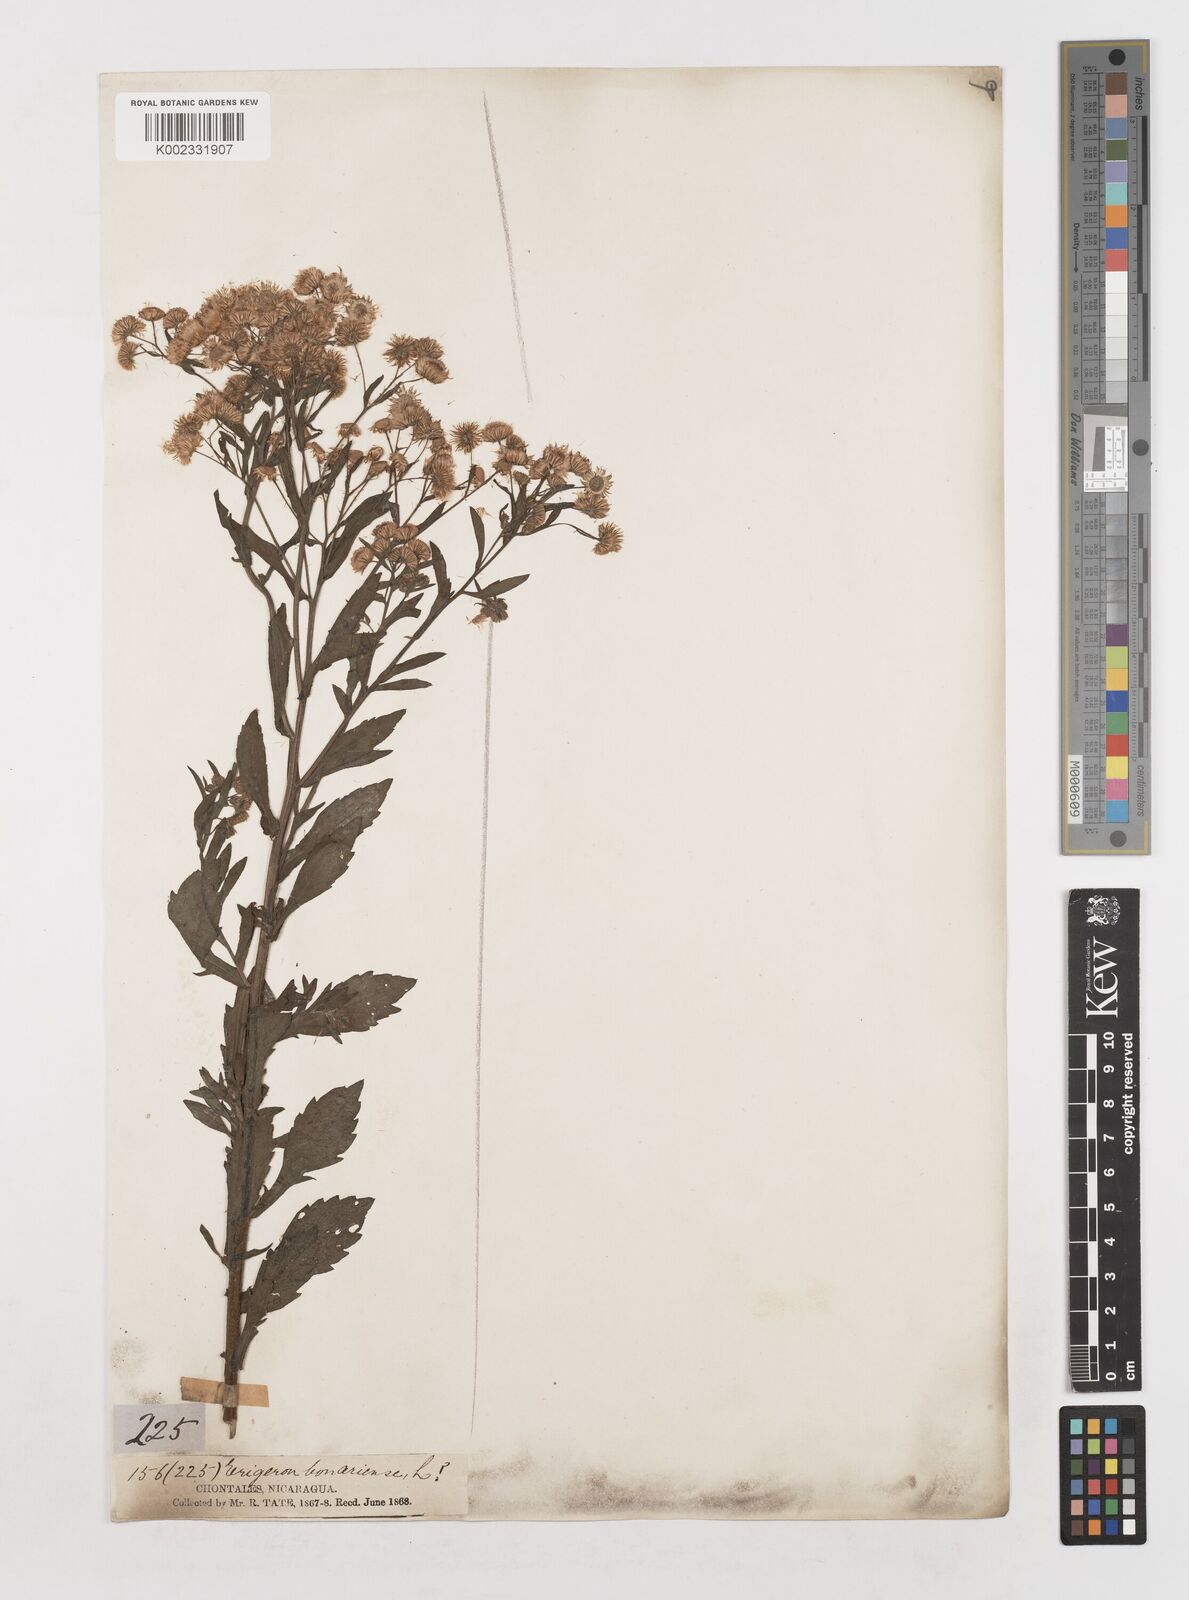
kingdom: Plantae
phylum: Tracheophyta
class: Magnoliopsida
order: Asterales
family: Asteraceae
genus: Erigeron
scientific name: Erigeron
